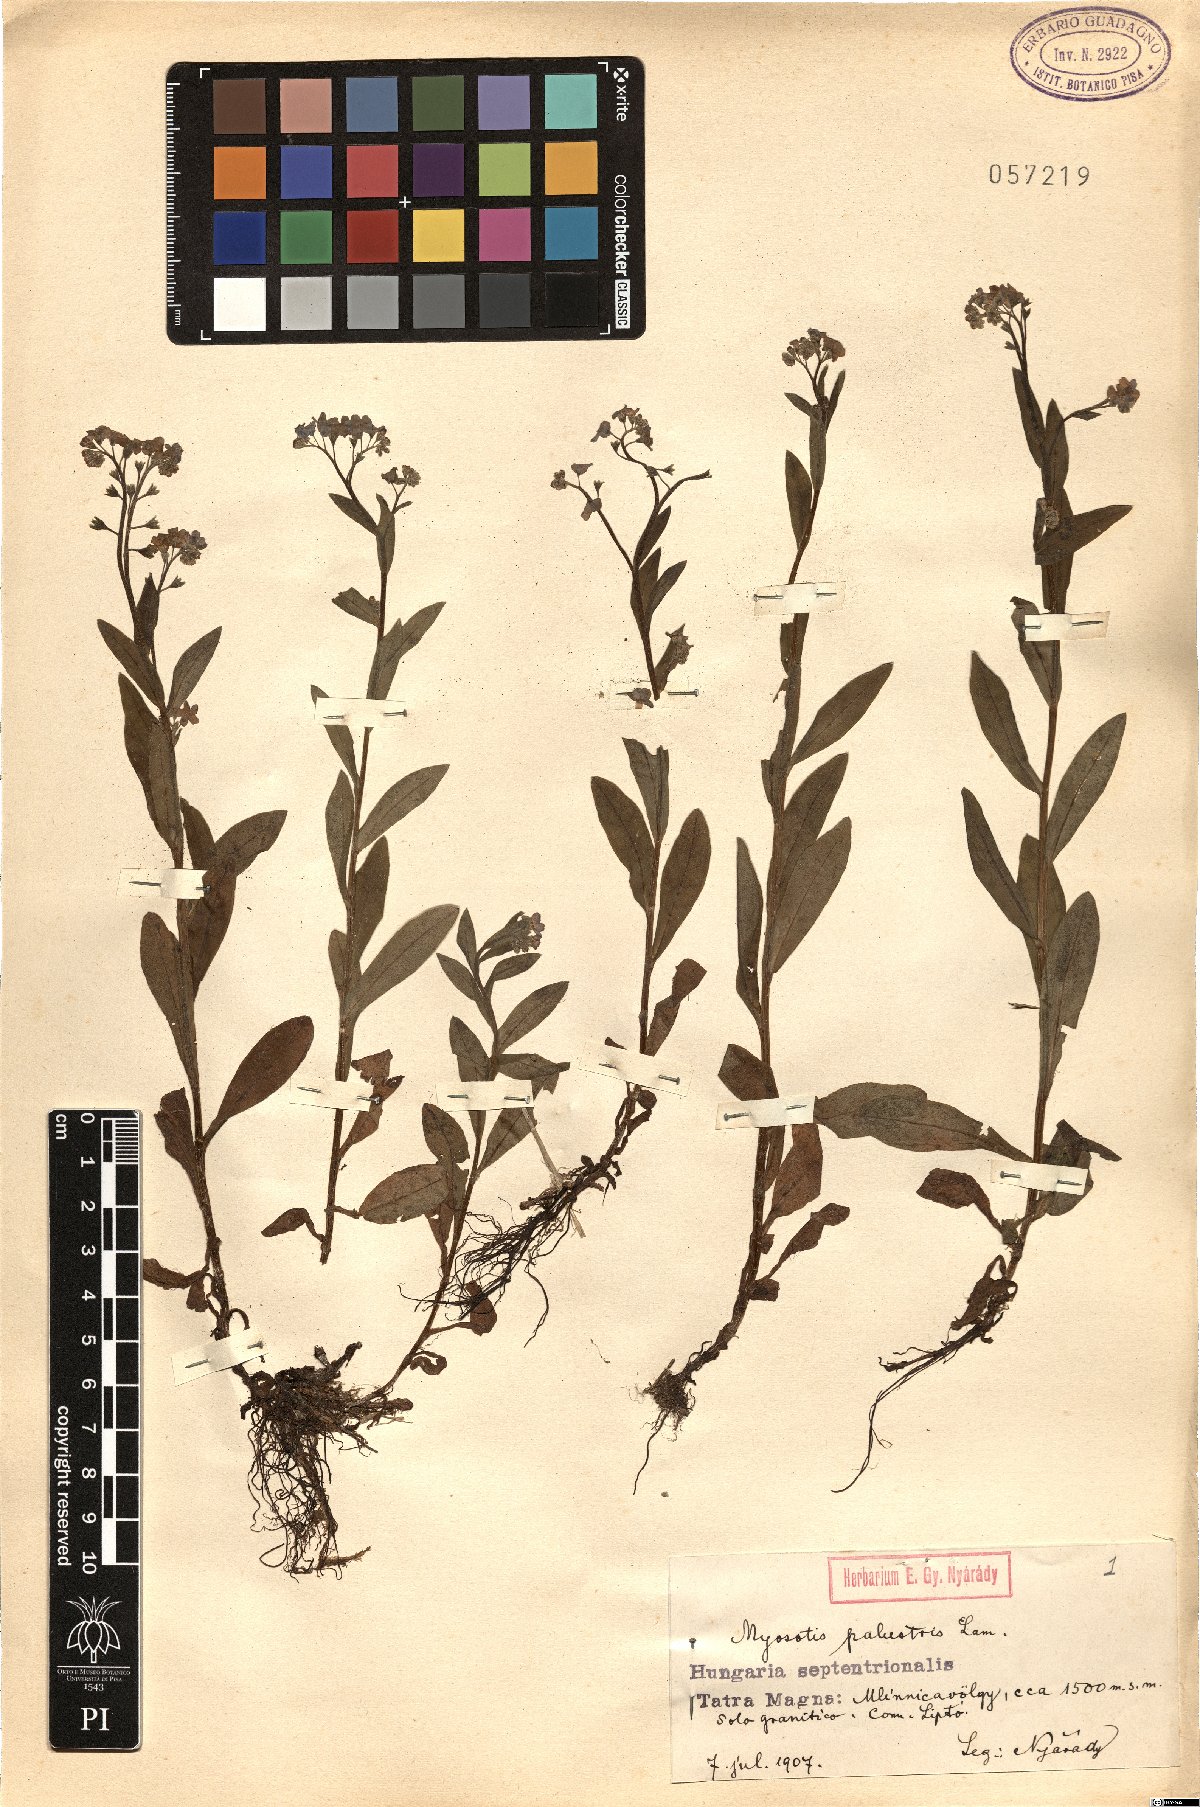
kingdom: Plantae
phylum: Tracheophyta
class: Magnoliopsida
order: Boraginales
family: Boraginaceae
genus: Myosotis
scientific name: Myosotis scorpioides
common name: Water forget-me-not
